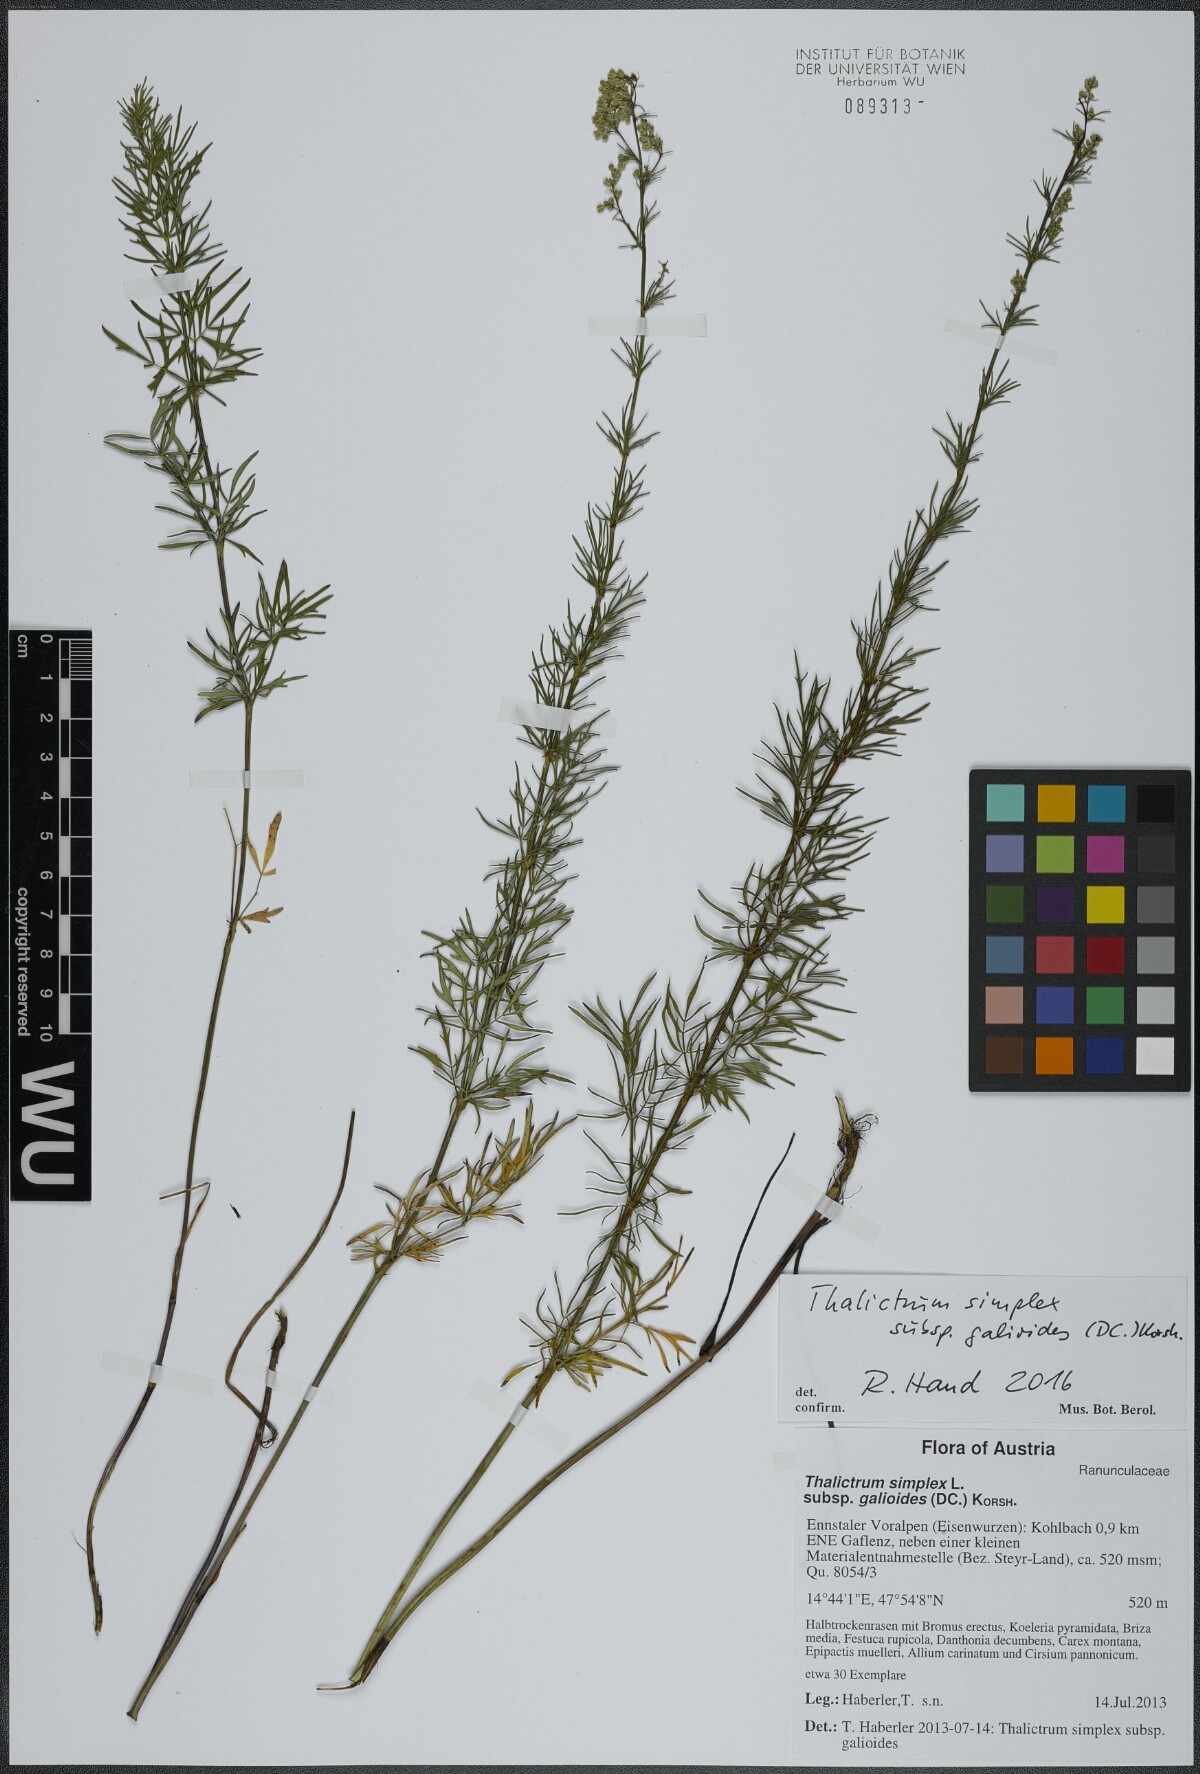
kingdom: Plantae
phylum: Tracheophyta
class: Magnoliopsida
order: Ranunculales
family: Ranunculaceae
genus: Thalictrum
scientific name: Thalictrum simplex
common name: Small meadow-rue
